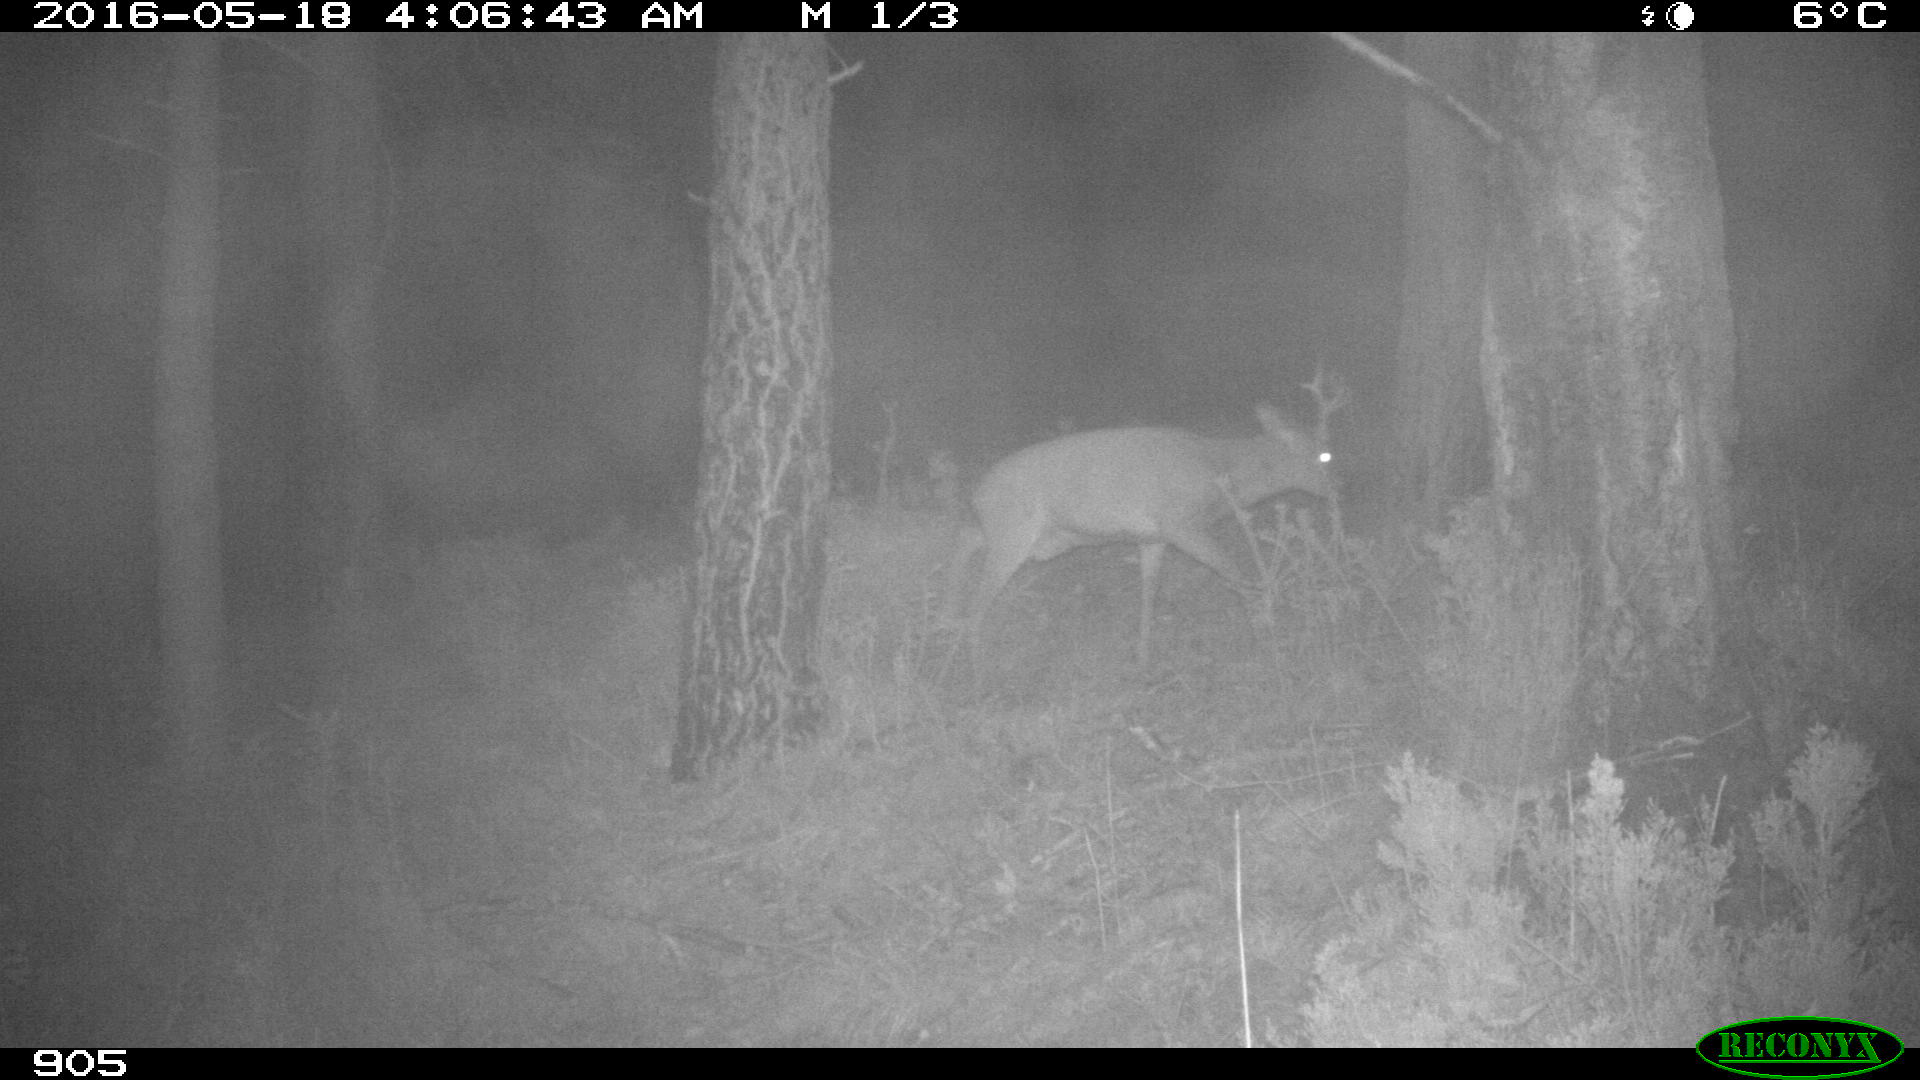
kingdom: Animalia
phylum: Chordata
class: Mammalia
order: Artiodactyla
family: Cervidae
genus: Capreolus
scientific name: Capreolus capreolus
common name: Western roe deer
